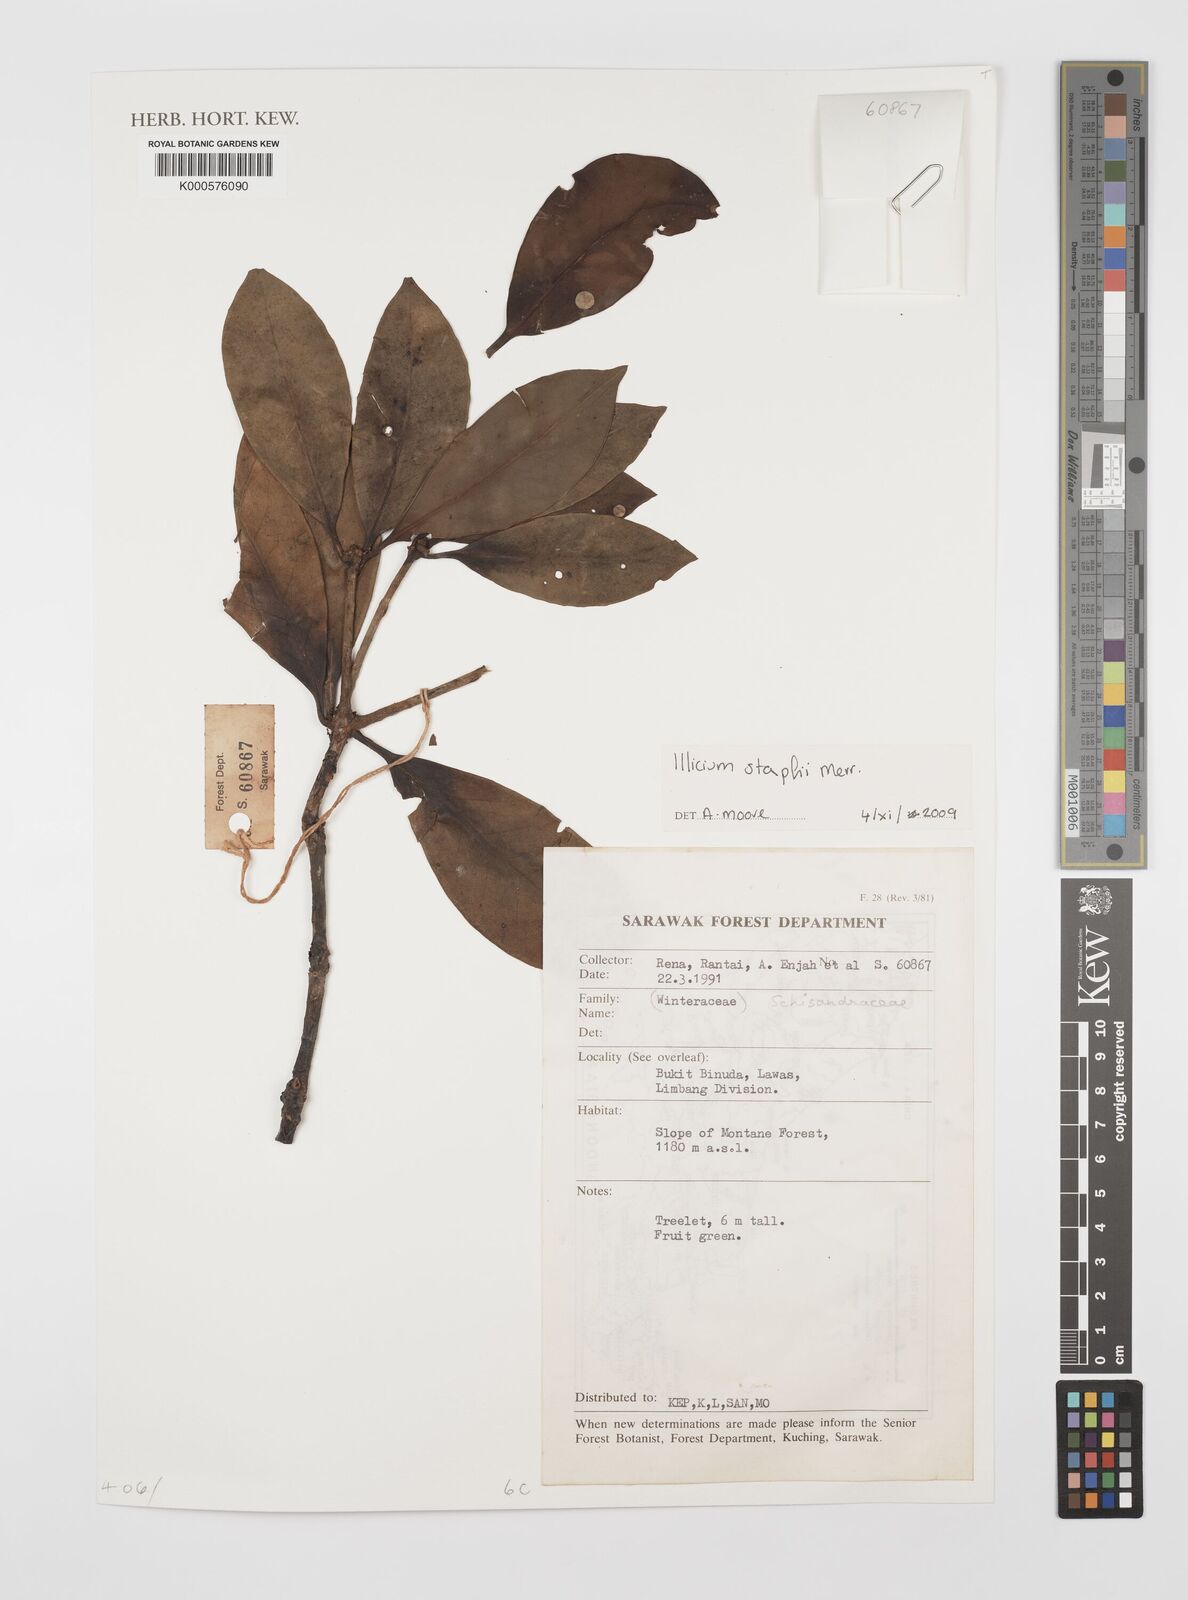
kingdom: Plantae
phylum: Tracheophyta
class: Magnoliopsida
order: Austrobaileyales
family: Schisandraceae
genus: Illicium
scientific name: Illicium stapfii
